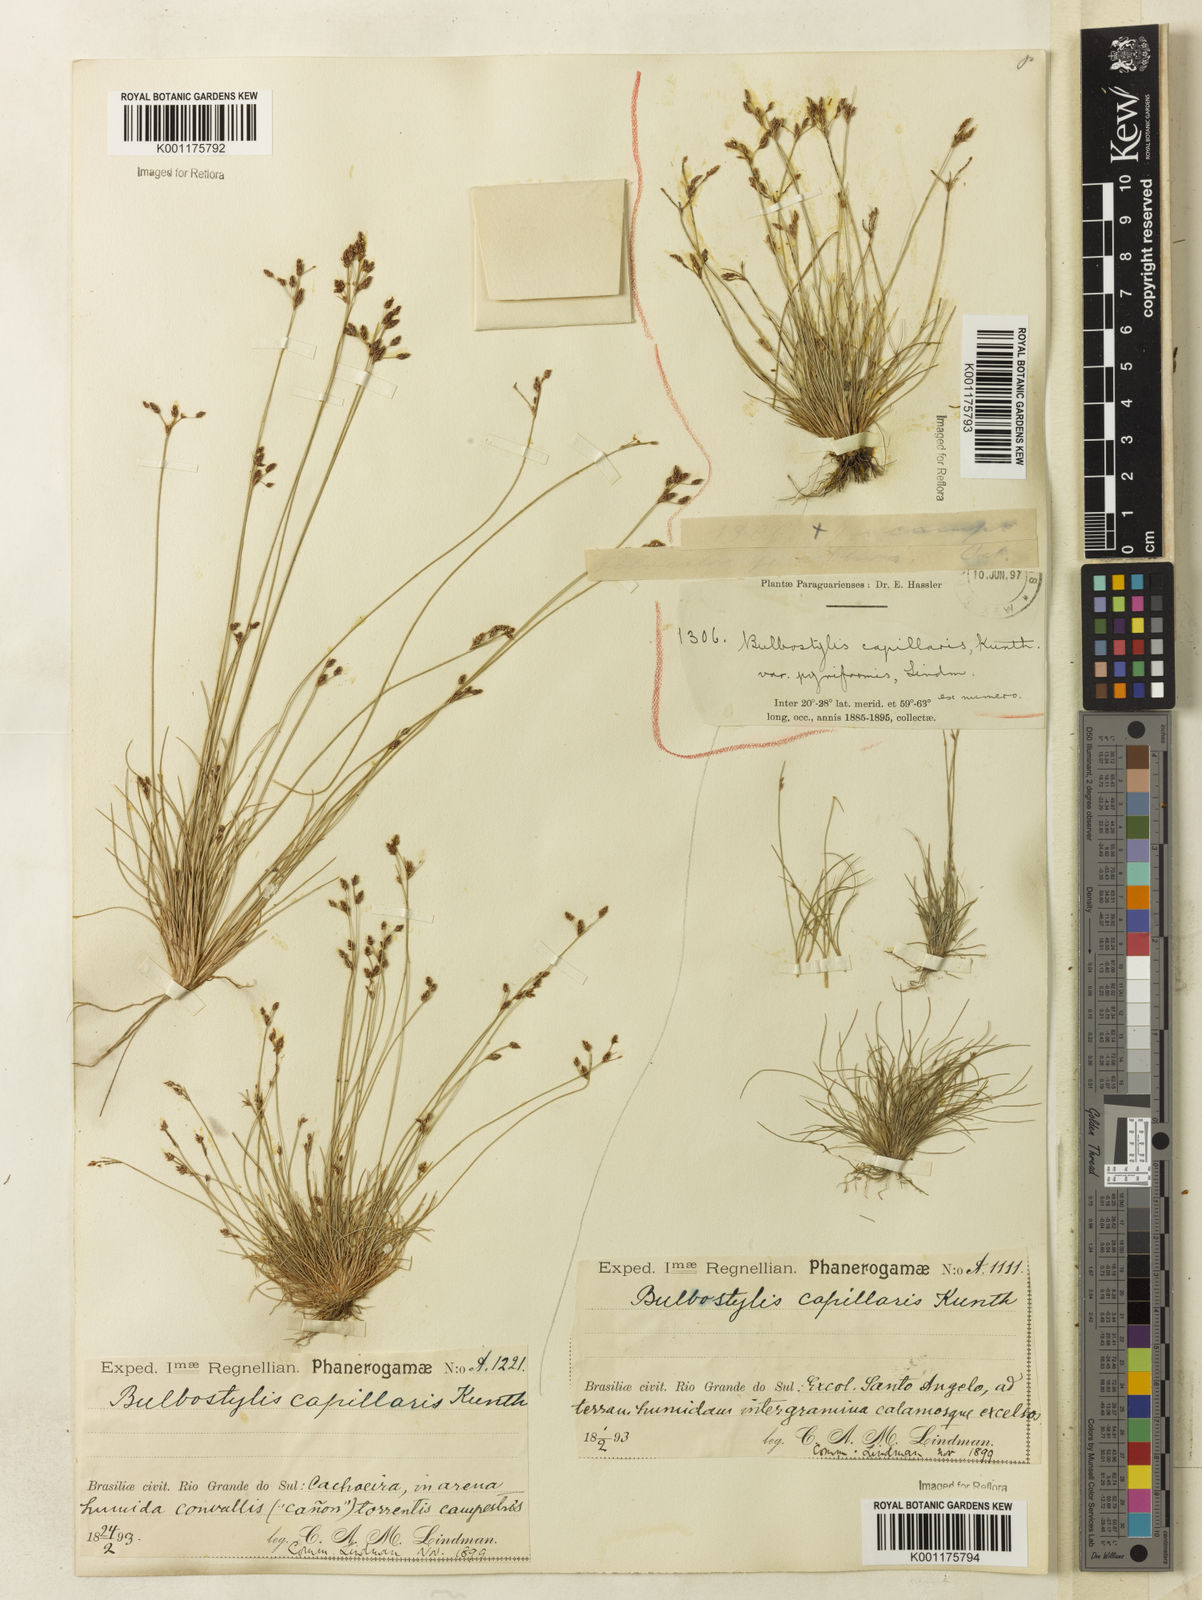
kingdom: Plantae
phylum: Tracheophyta
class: Liliopsida
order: Poales
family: Cyperaceae
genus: Bulbostylis
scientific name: Bulbostylis capillaris
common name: Densetuft hairsedge
